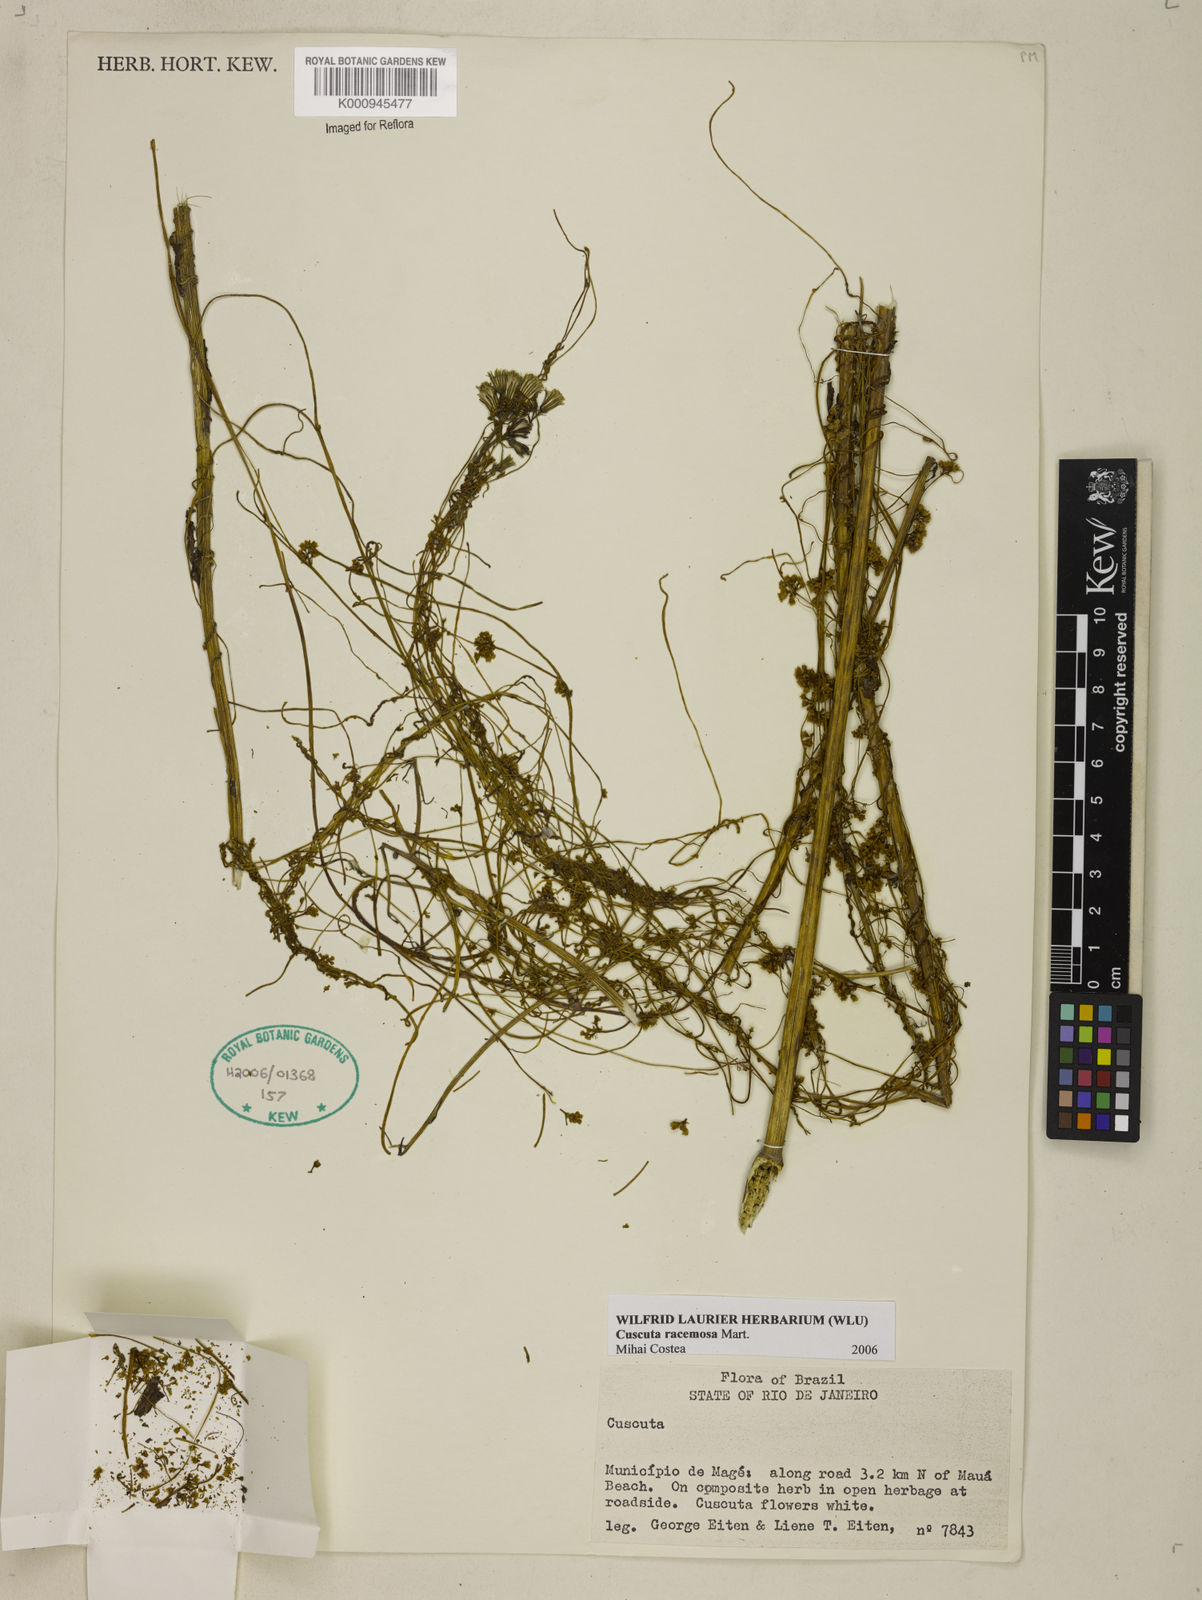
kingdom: Plantae
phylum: Tracheophyta
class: Magnoliopsida
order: Solanales
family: Convolvulaceae
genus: Cuscuta
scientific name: Cuscuta racemosa
